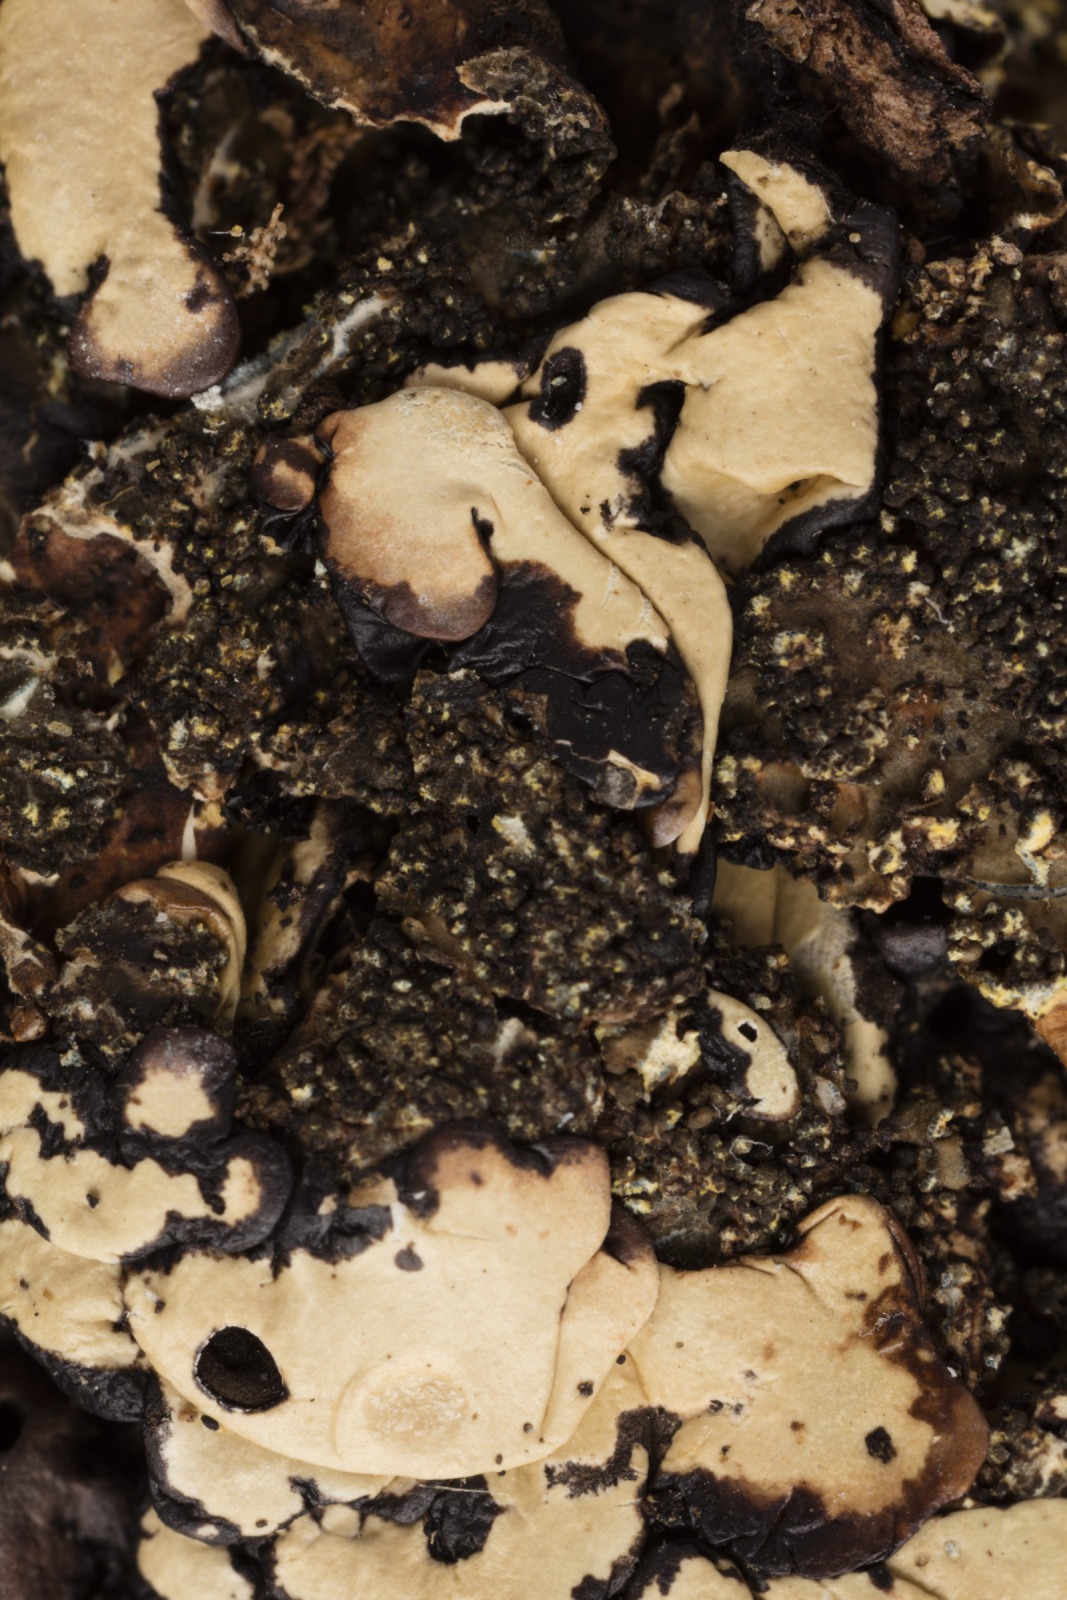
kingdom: Fungi
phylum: Ascomycota
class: Lecanoromycetes
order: Peltigerales
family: Lobariaceae
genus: Pseudocyphellaria
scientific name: Pseudocyphellaria crocata
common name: Golden specklebelly
